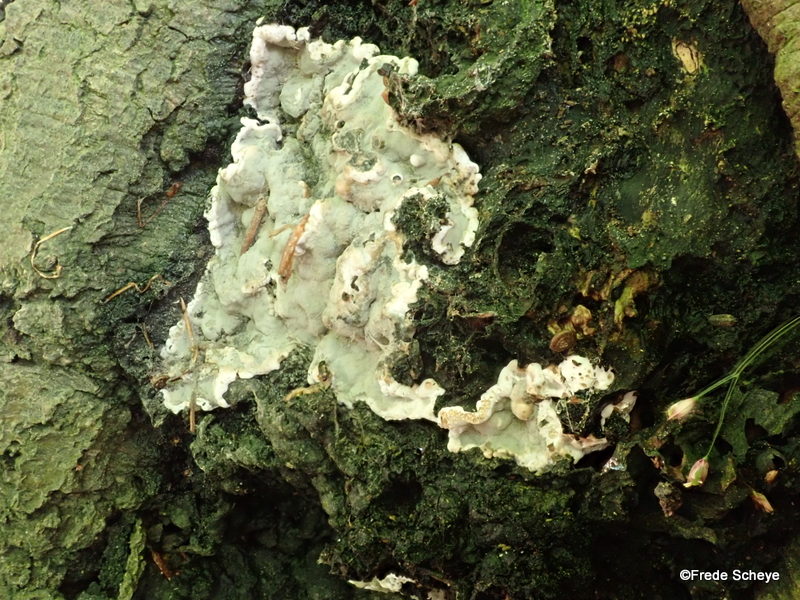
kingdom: Fungi
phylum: Ascomycota
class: Sordariomycetes
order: Xylariales
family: Xylariaceae
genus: Kretzschmaria
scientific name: Kretzschmaria deusta
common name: stor kulsvamp
